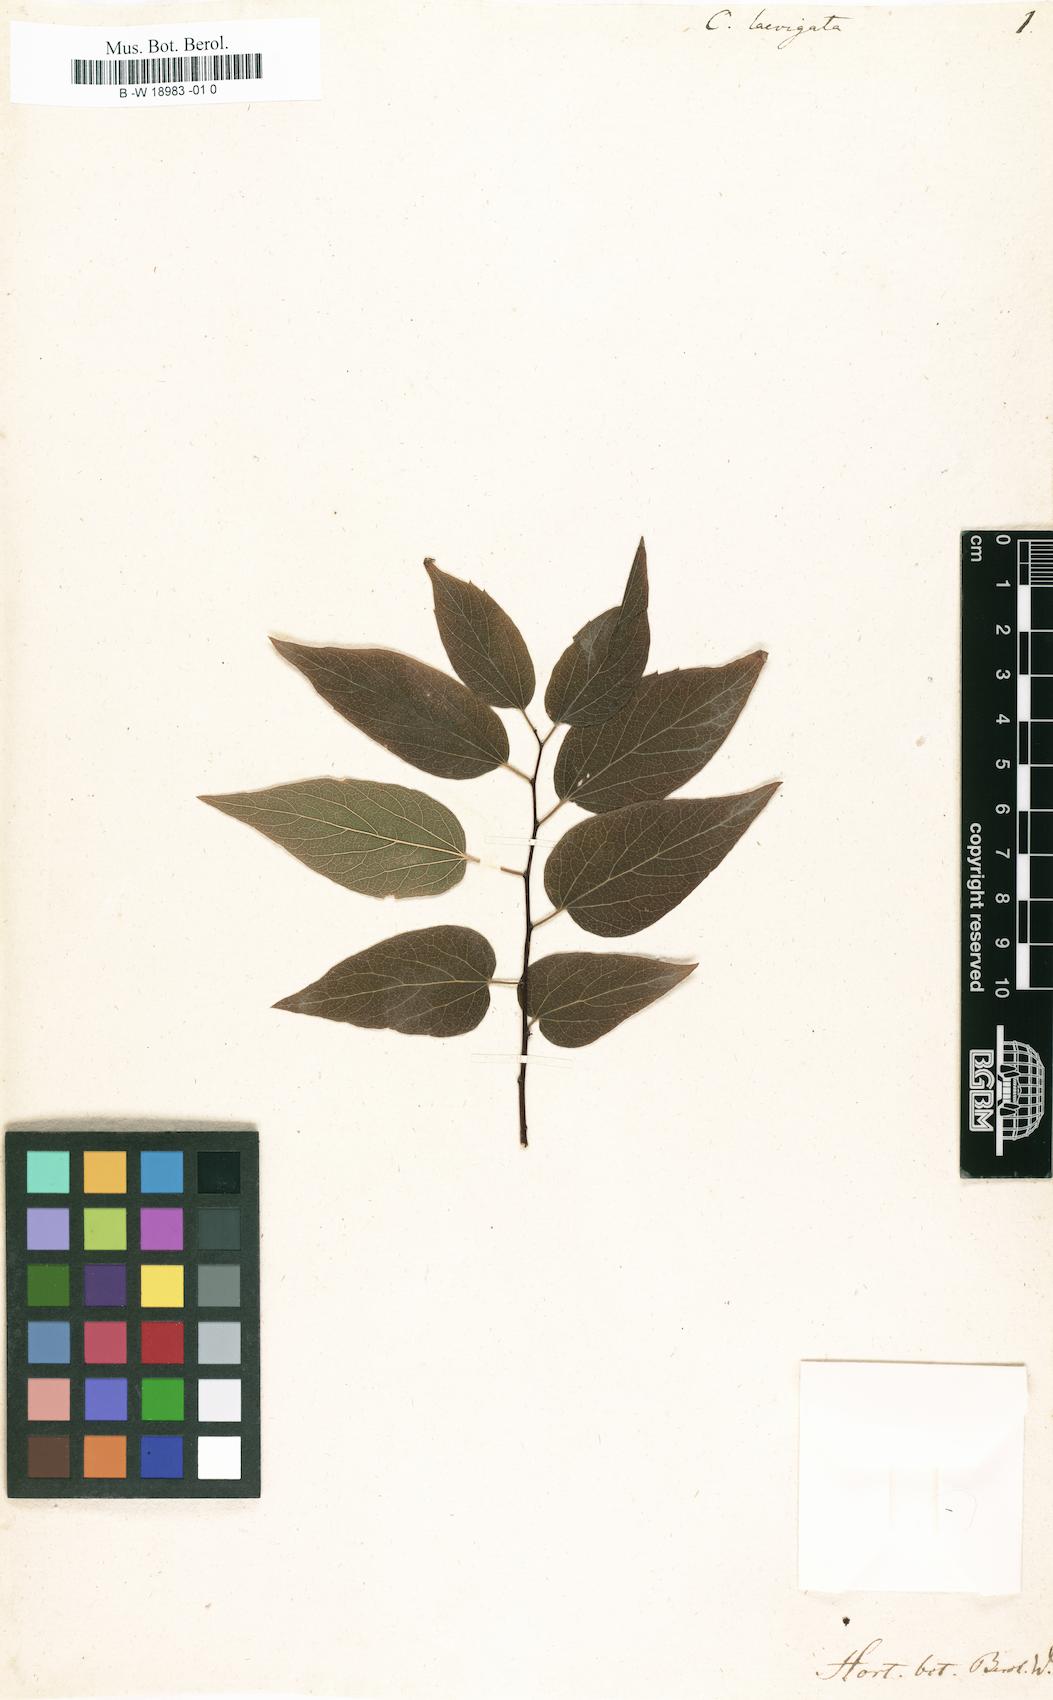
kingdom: Plantae
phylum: Tracheophyta
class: Magnoliopsida
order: Rosales
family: Cannabaceae
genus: Celtis
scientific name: Celtis laevigata
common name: Sugarberry
